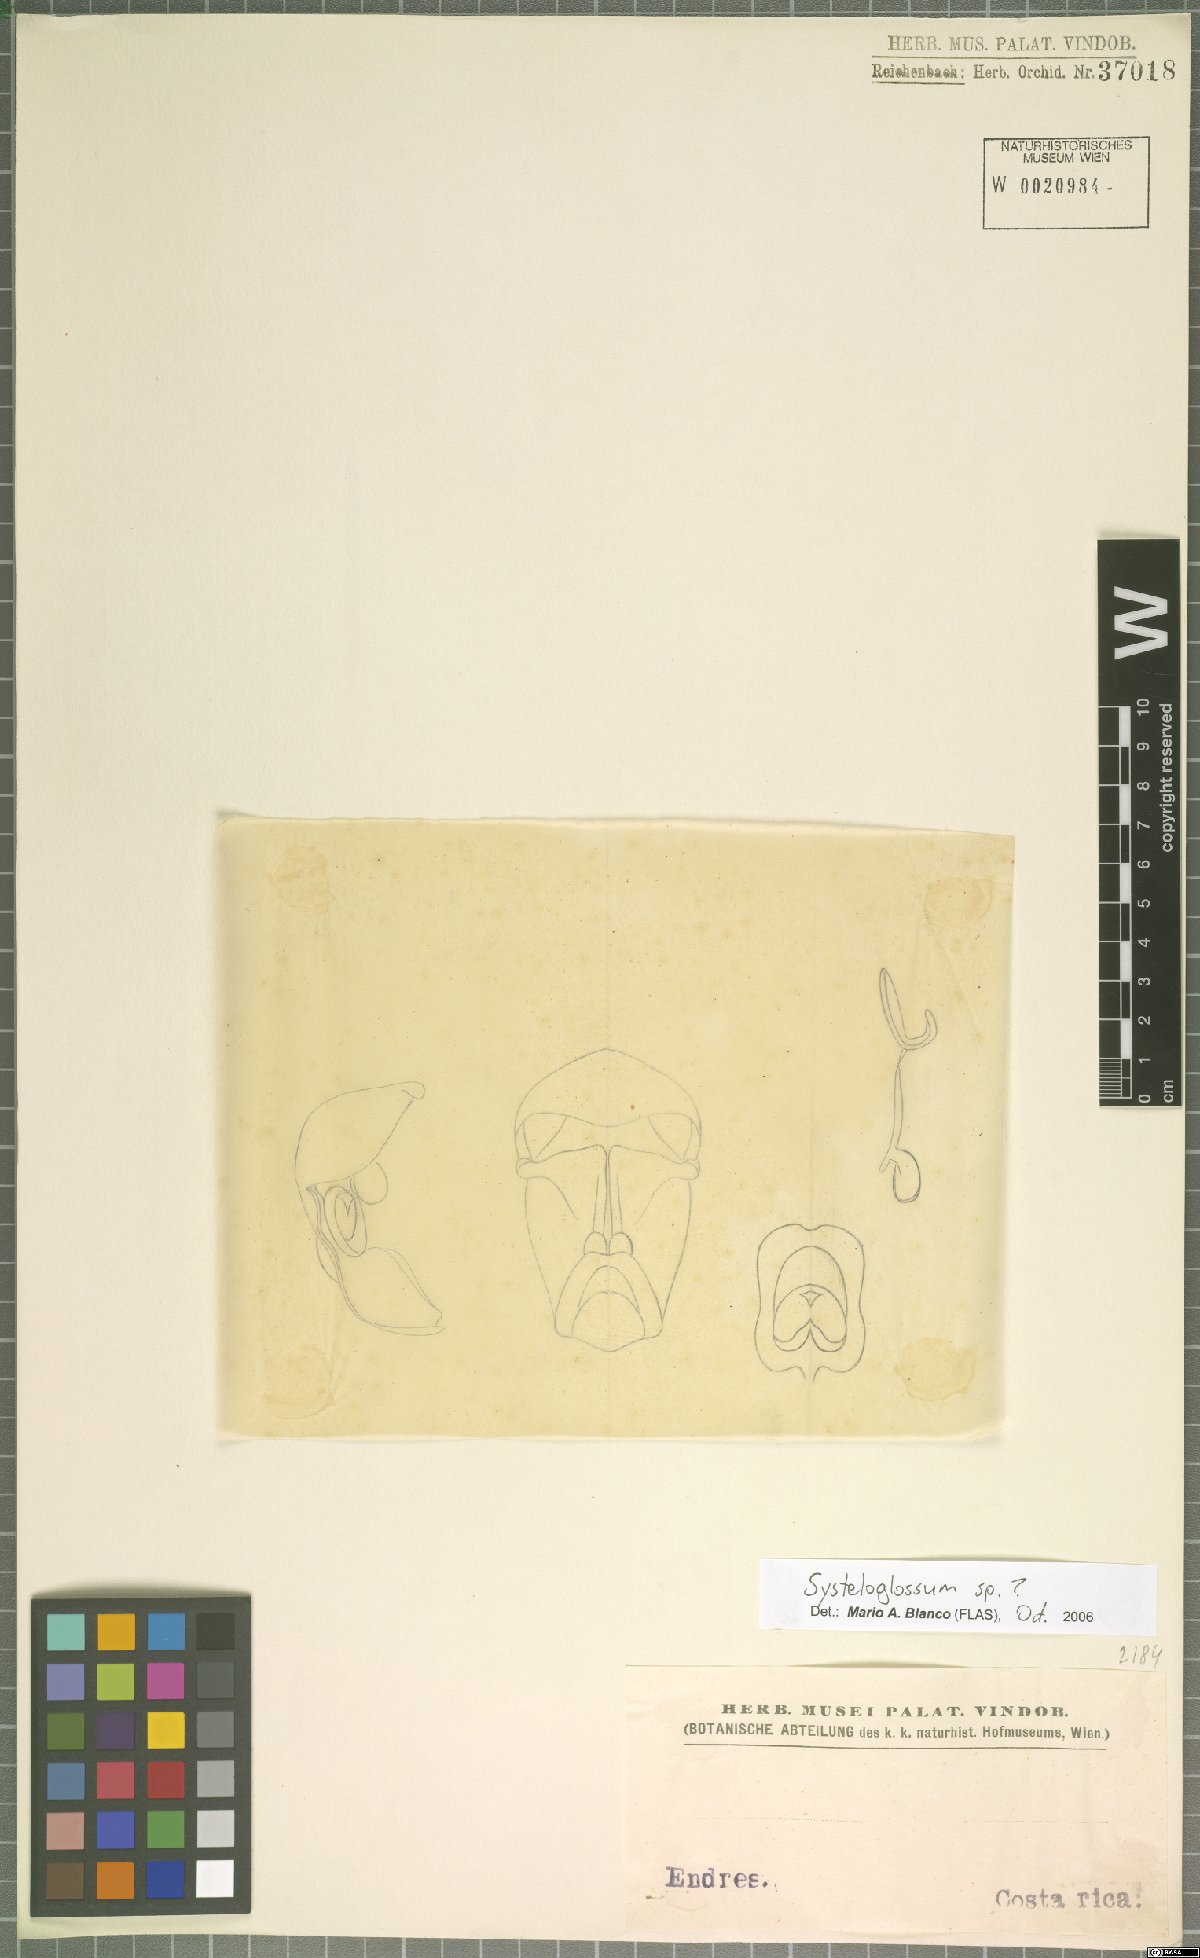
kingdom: Plantae
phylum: Tracheophyta
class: Liliopsida
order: Asparagales
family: Orchidaceae
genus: Systeloglossum
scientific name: Systeloglossum
